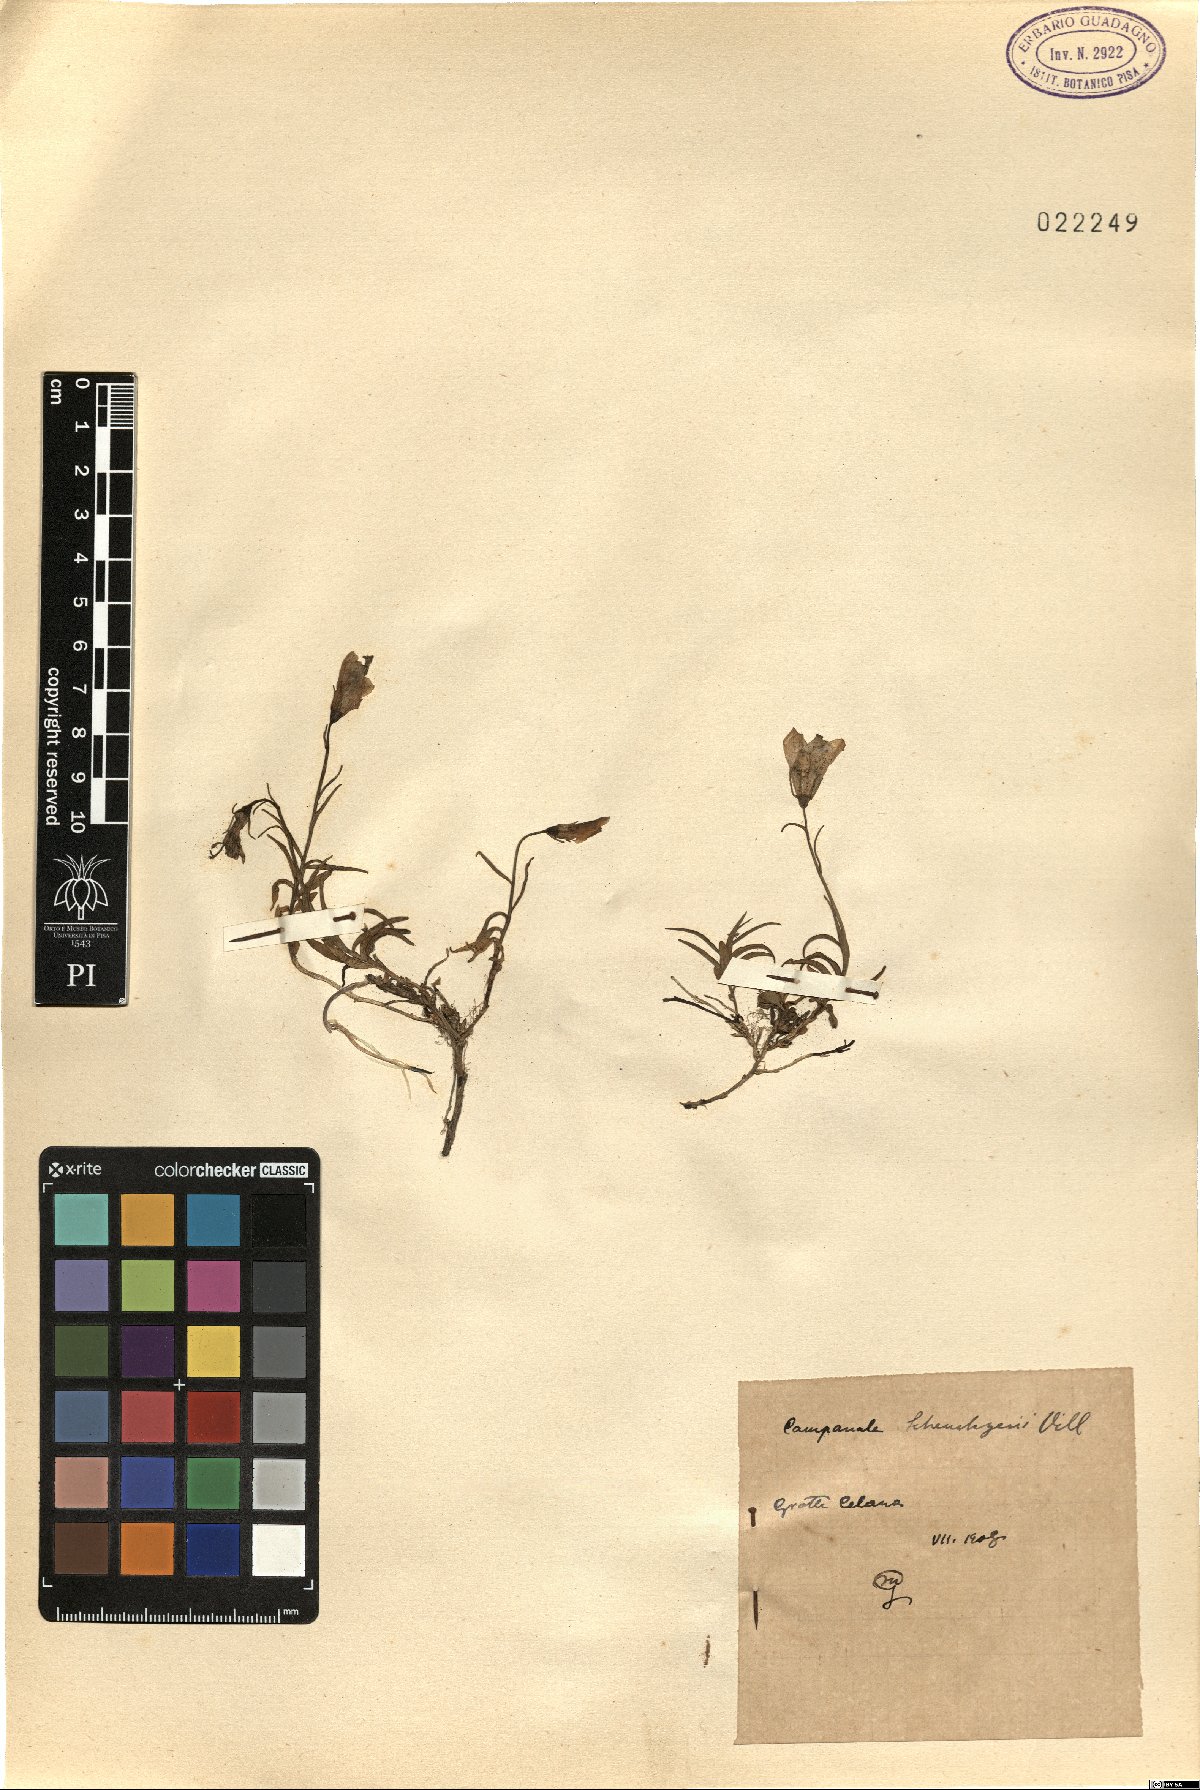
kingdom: Plantae
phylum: Tracheophyta
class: Magnoliopsida
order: Asterales
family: Campanulaceae
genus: Campanula
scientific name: Campanula scheuchzeri
